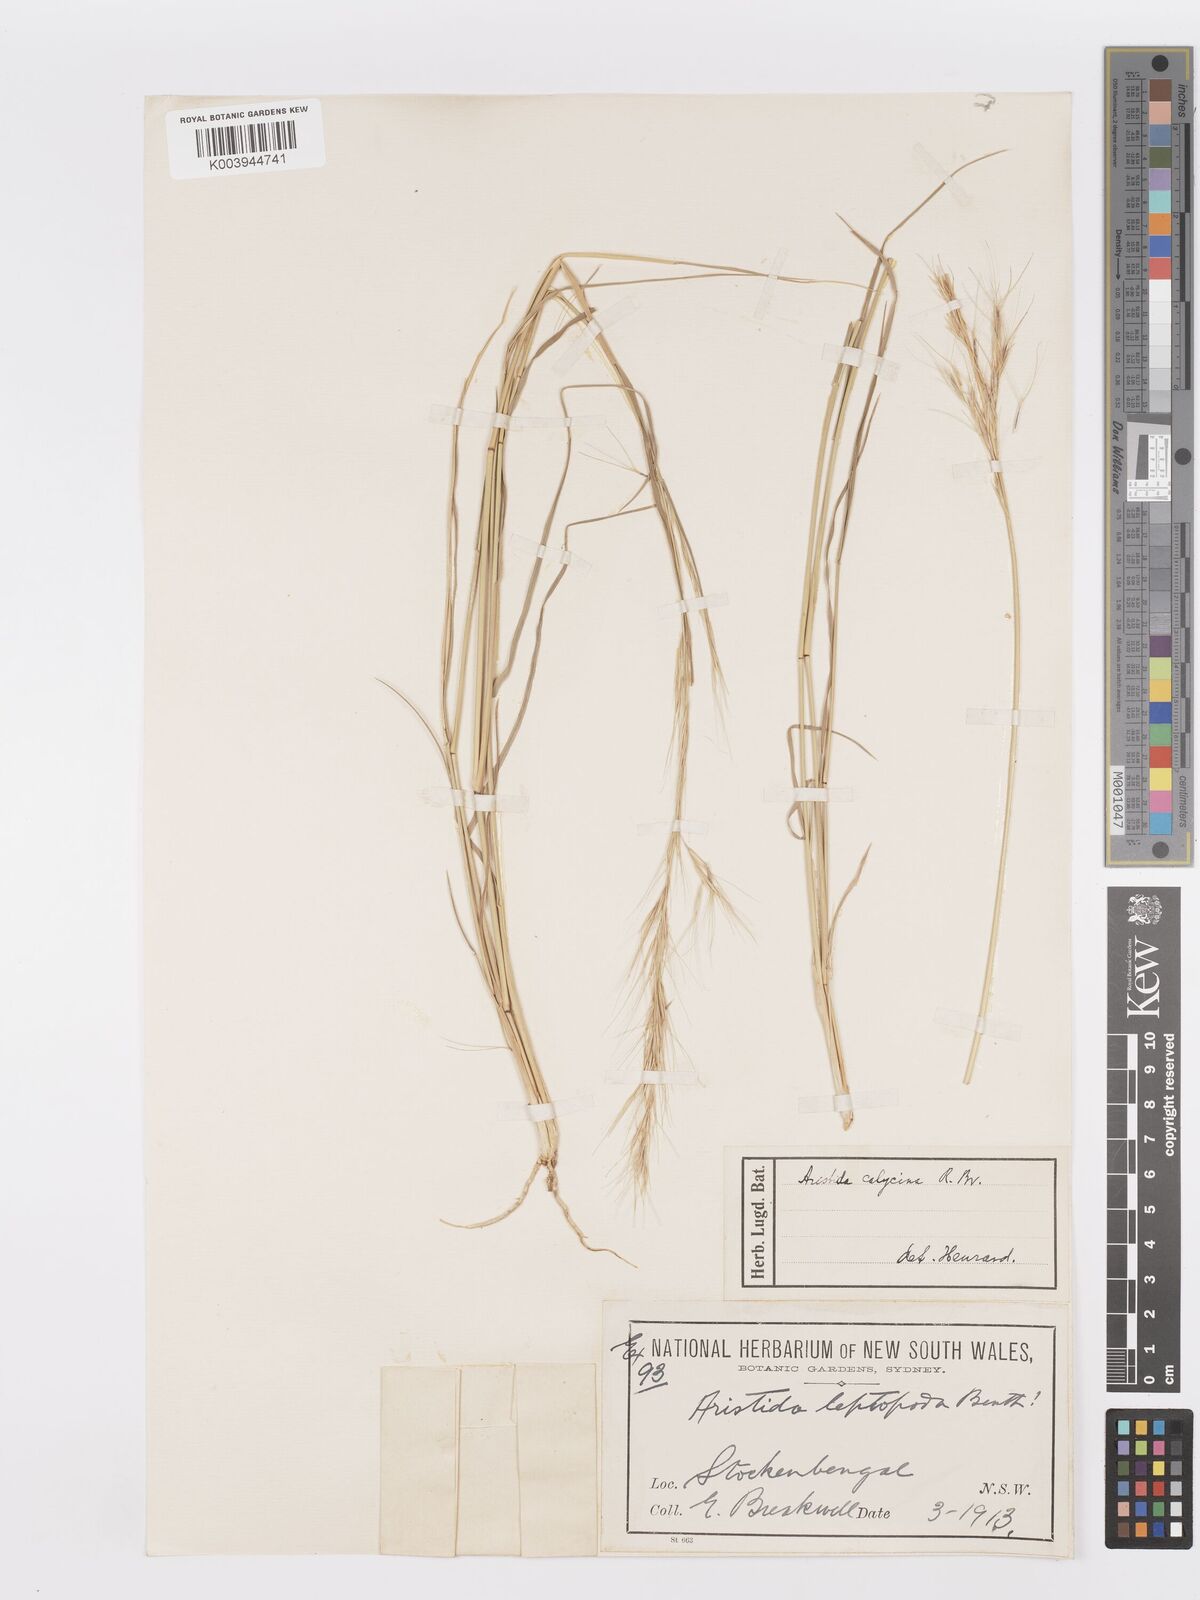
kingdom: Plantae
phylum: Tracheophyta
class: Liliopsida
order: Poales
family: Poaceae
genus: Aristida
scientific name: Aristida calycina
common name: Dark wire grass
